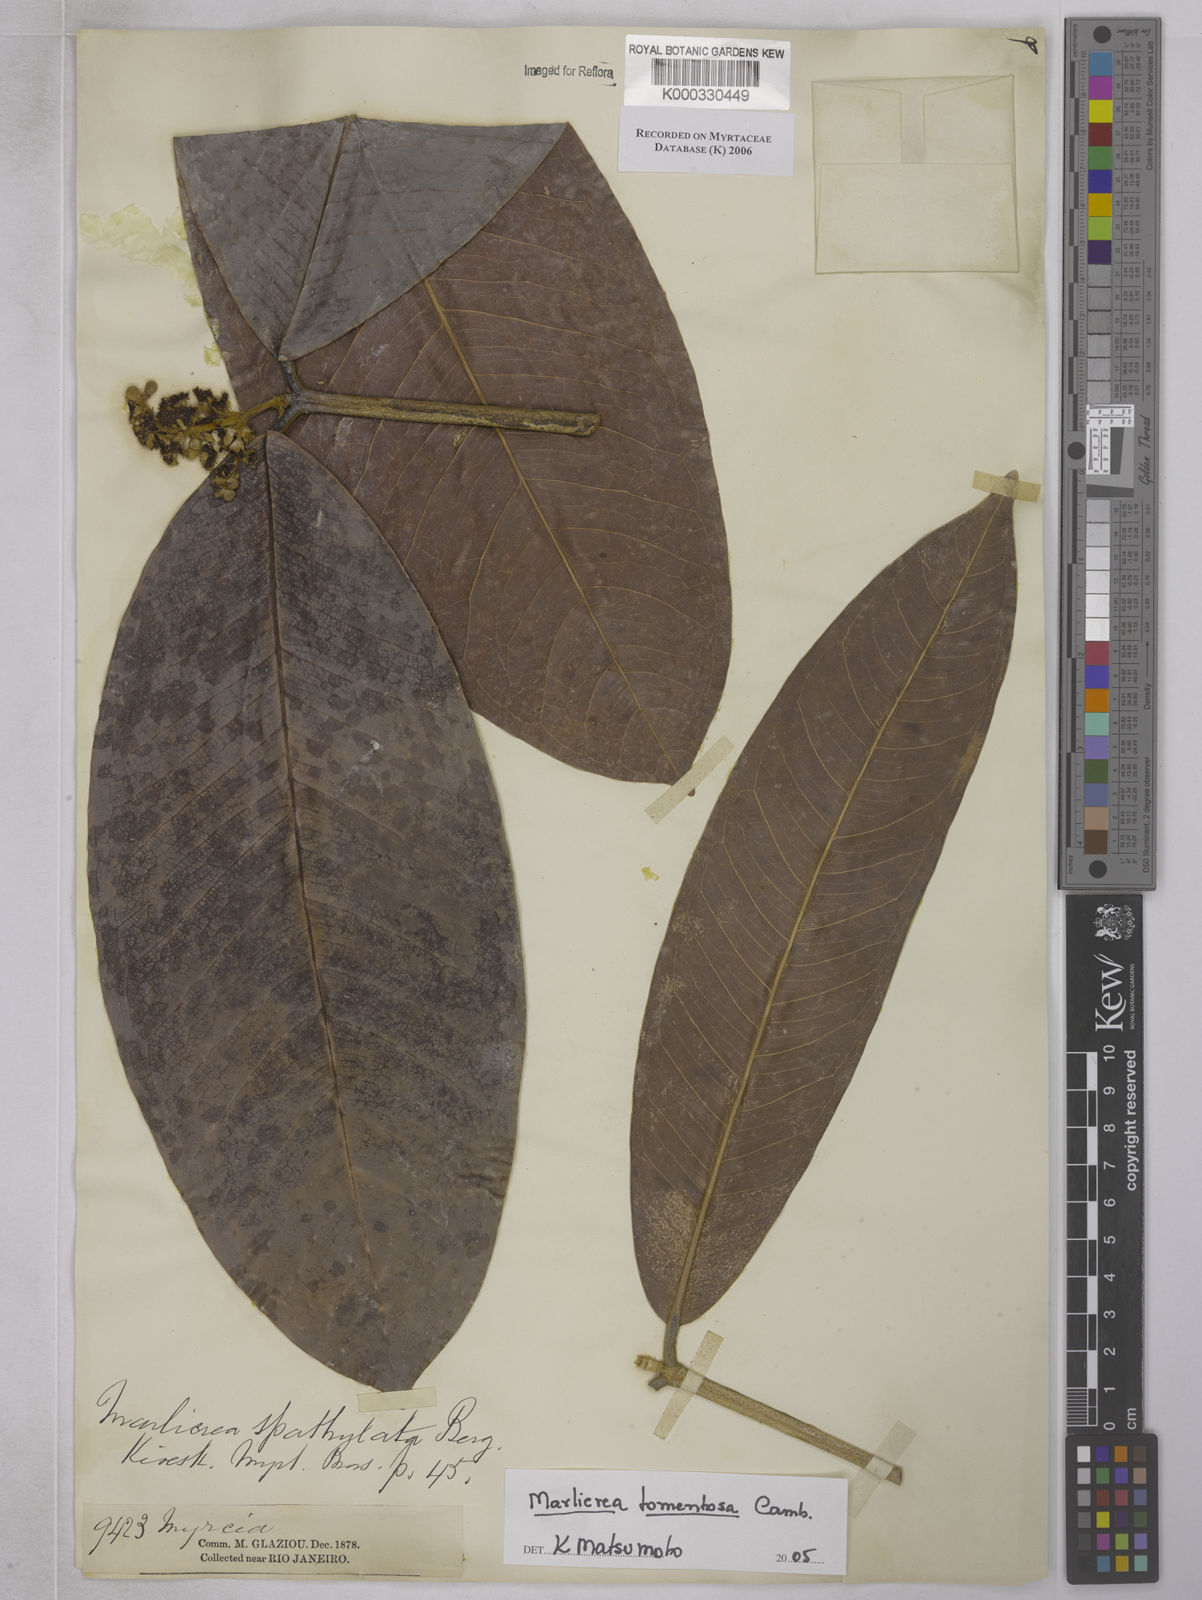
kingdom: Plantae
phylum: Tracheophyta
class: Magnoliopsida
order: Myrtales
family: Myrtaceae
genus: Myrcia
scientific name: Myrcia neotomentosa
